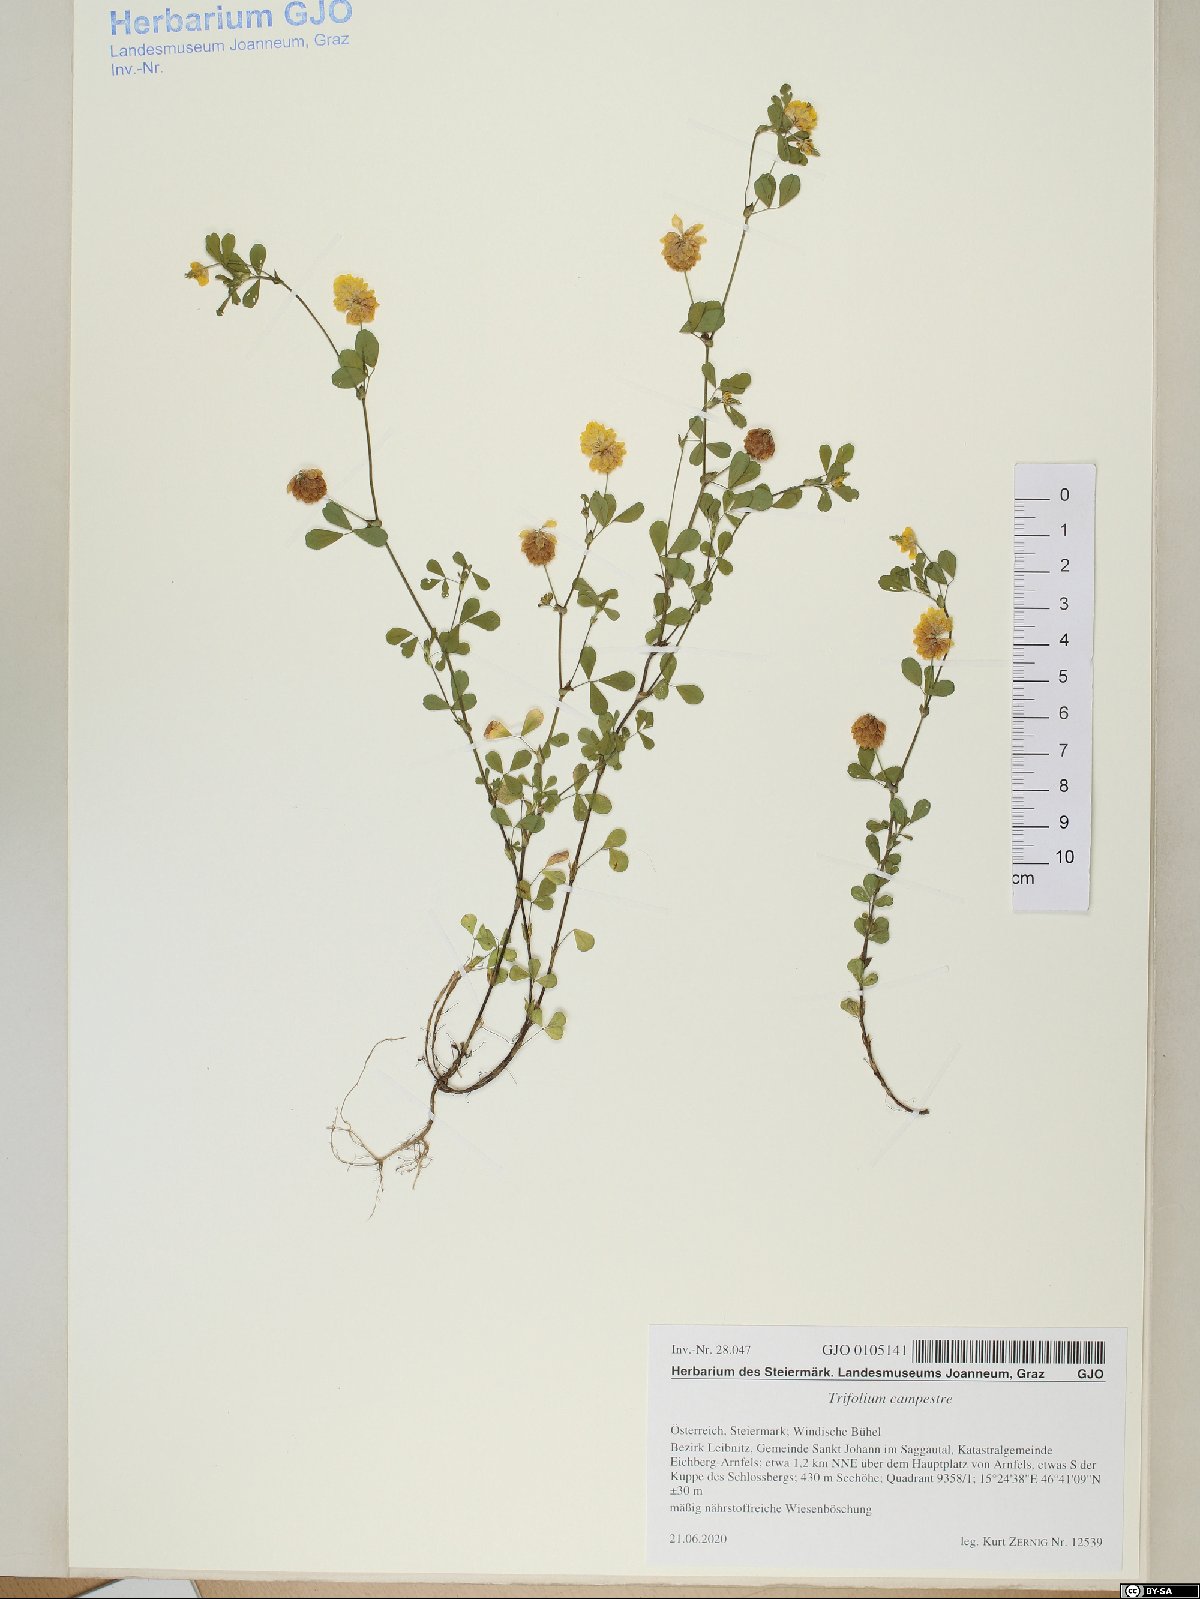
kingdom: Plantae
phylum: Tracheophyta
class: Magnoliopsida
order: Fabales
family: Fabaceae
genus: Trifolium
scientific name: Trifolium campestre
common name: Field clover
